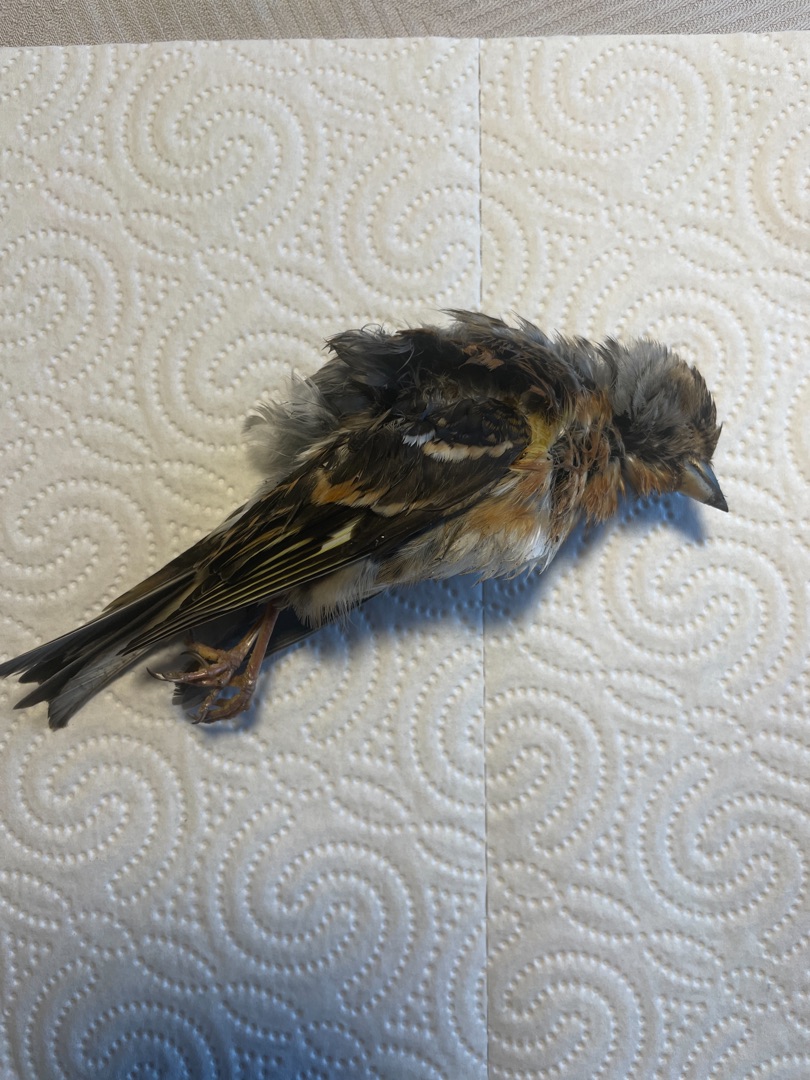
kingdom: Animalia
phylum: Chordata
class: Aves
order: Passeriformes
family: Fringillidae
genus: Fringilla
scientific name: Fringilla montifringilla
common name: Kvækerfinke
